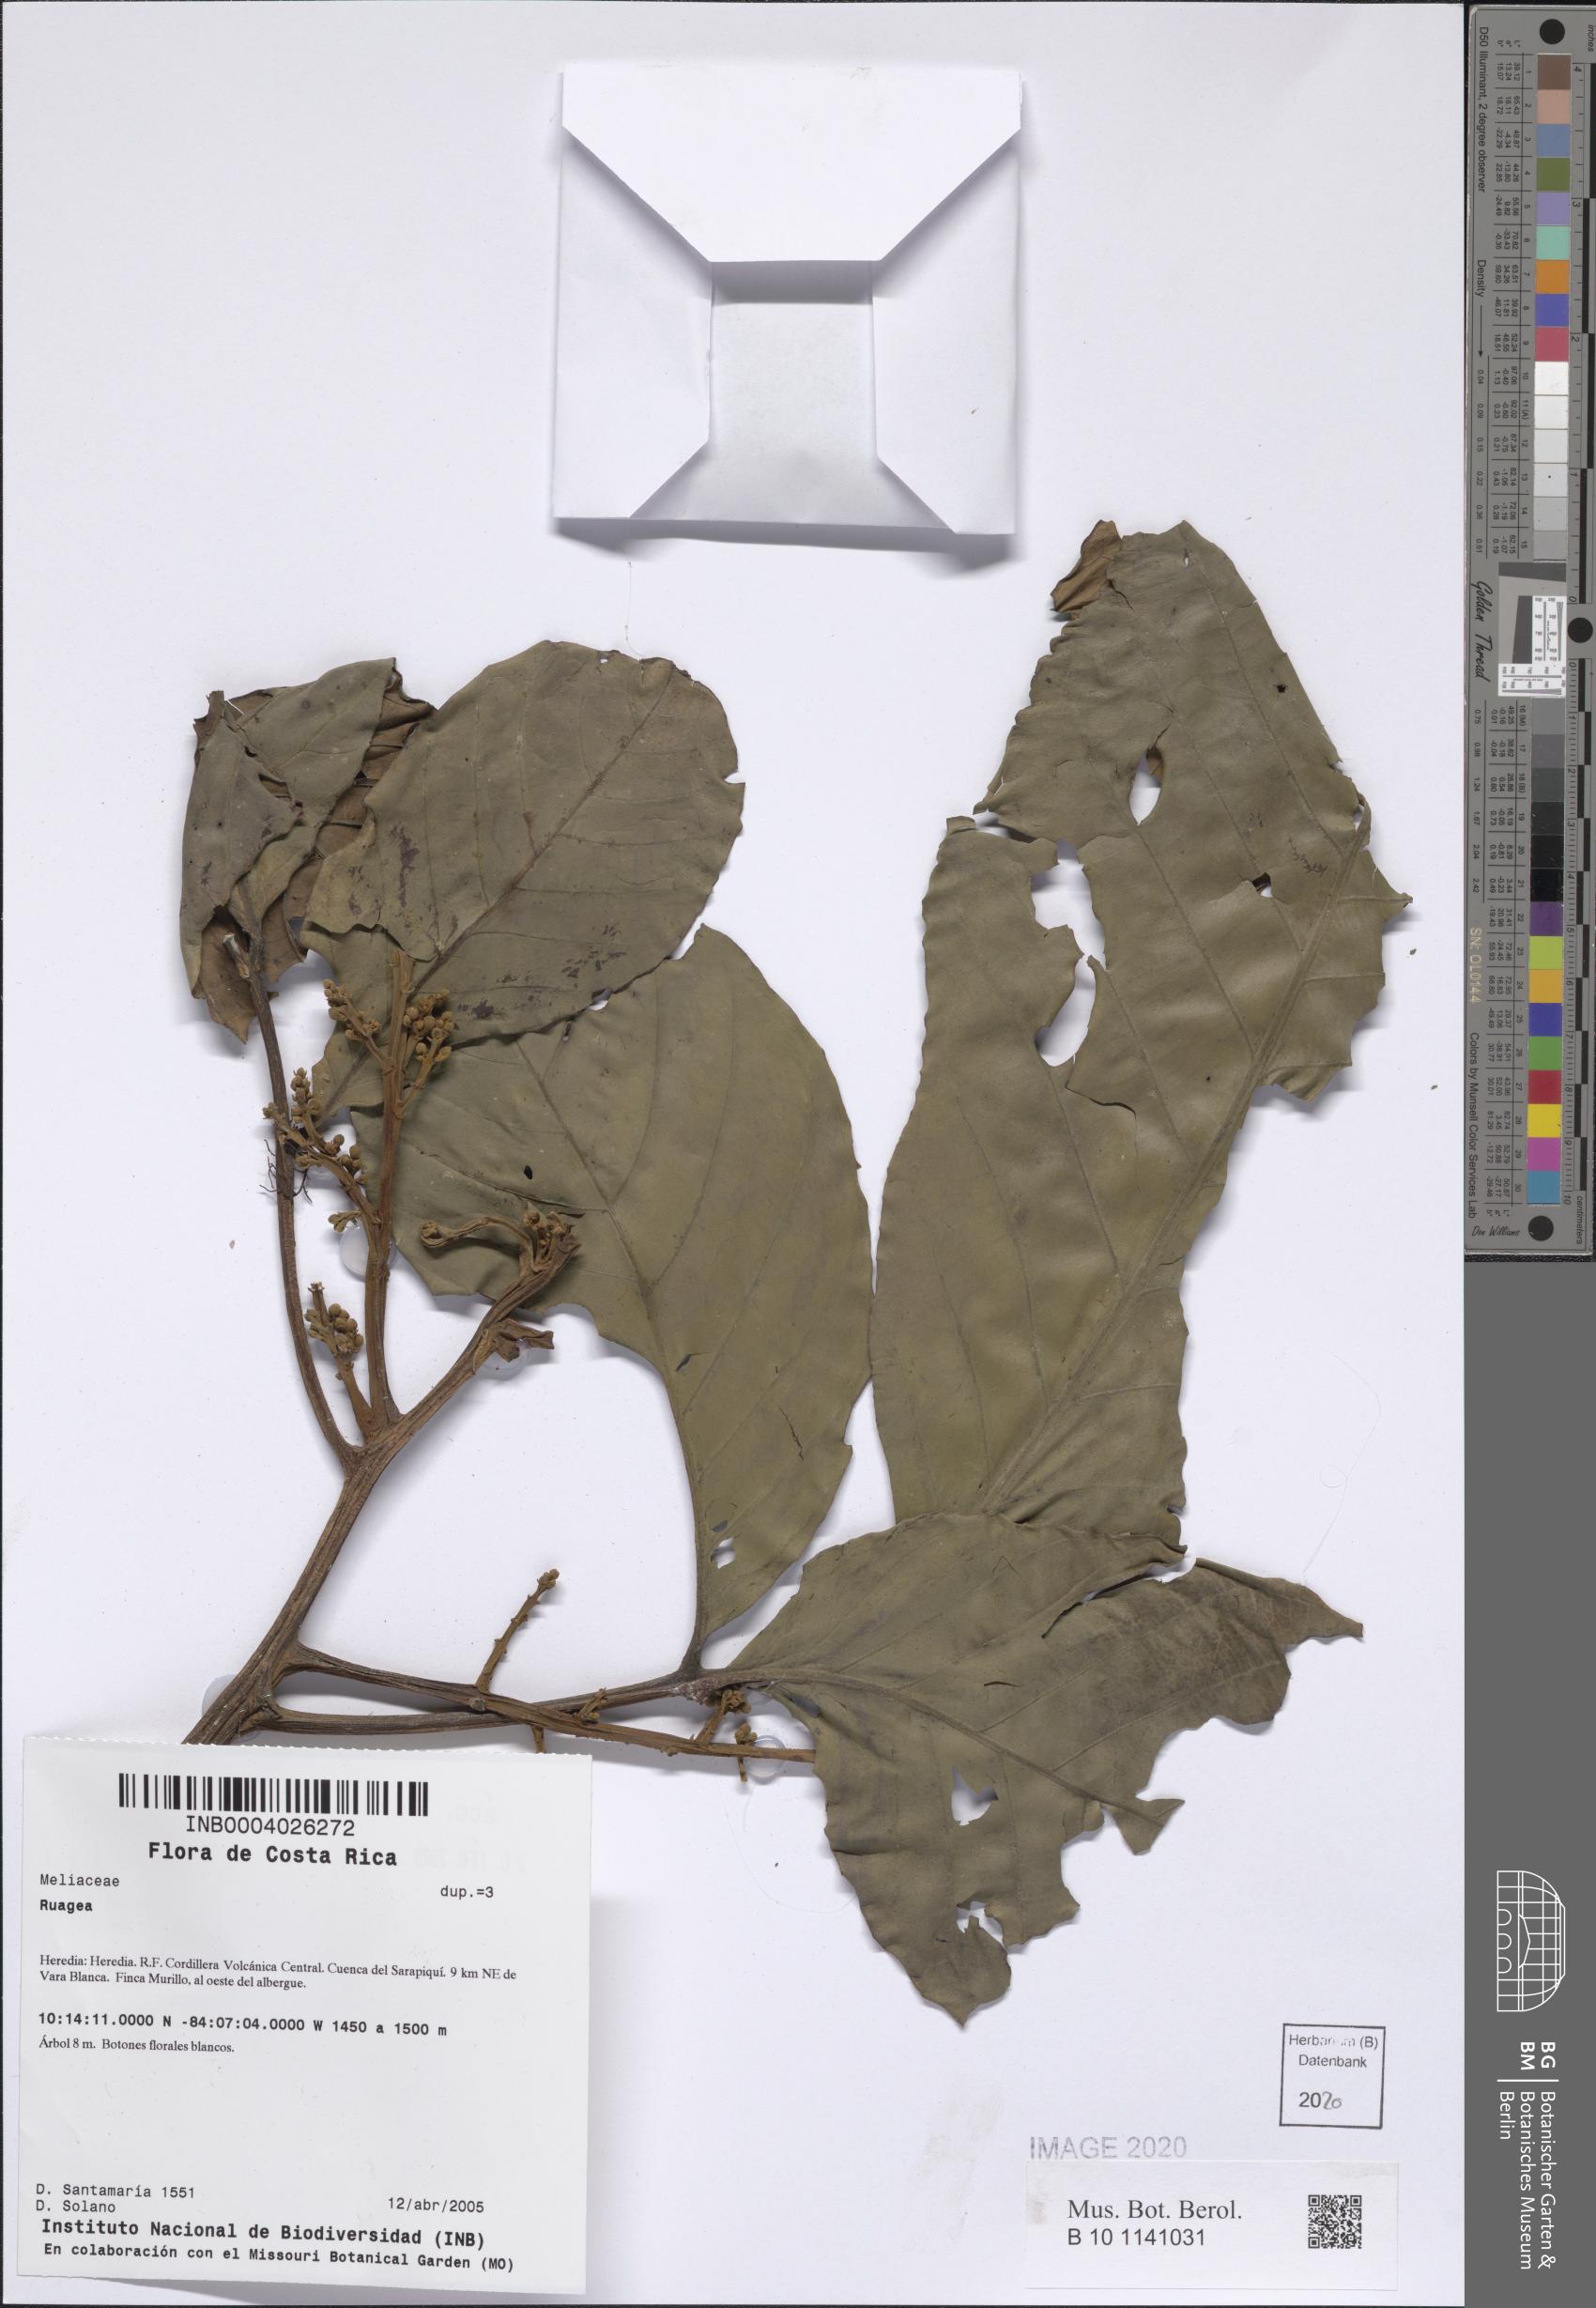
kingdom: Plantae
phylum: Tracheophyta
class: Magnoliopsida
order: Sapindales
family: Meliaceae
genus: Ruagea
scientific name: Ruagea
